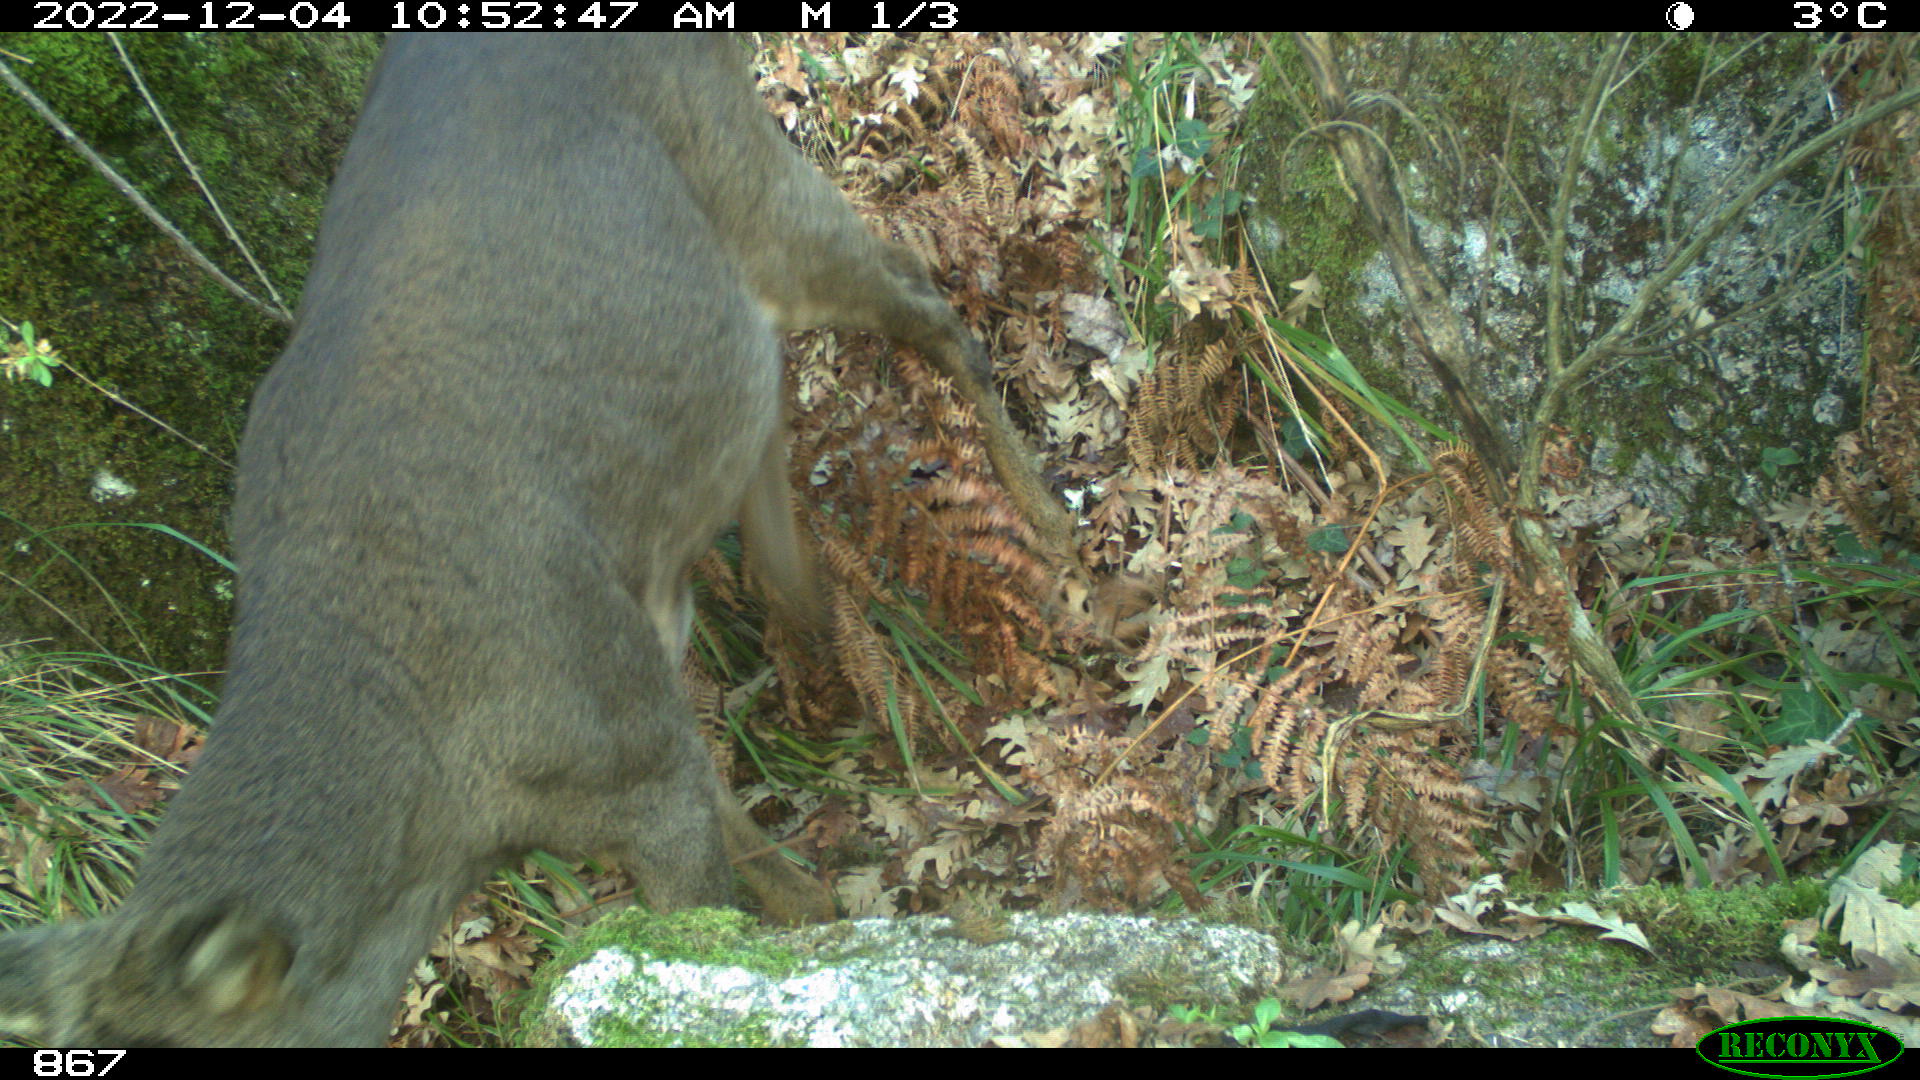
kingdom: Animalia
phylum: Chordata
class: Mammalia
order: Artiodactyla
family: Cervidae
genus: Capreolus
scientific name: Capreolus capreolus
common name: Western roe deer
